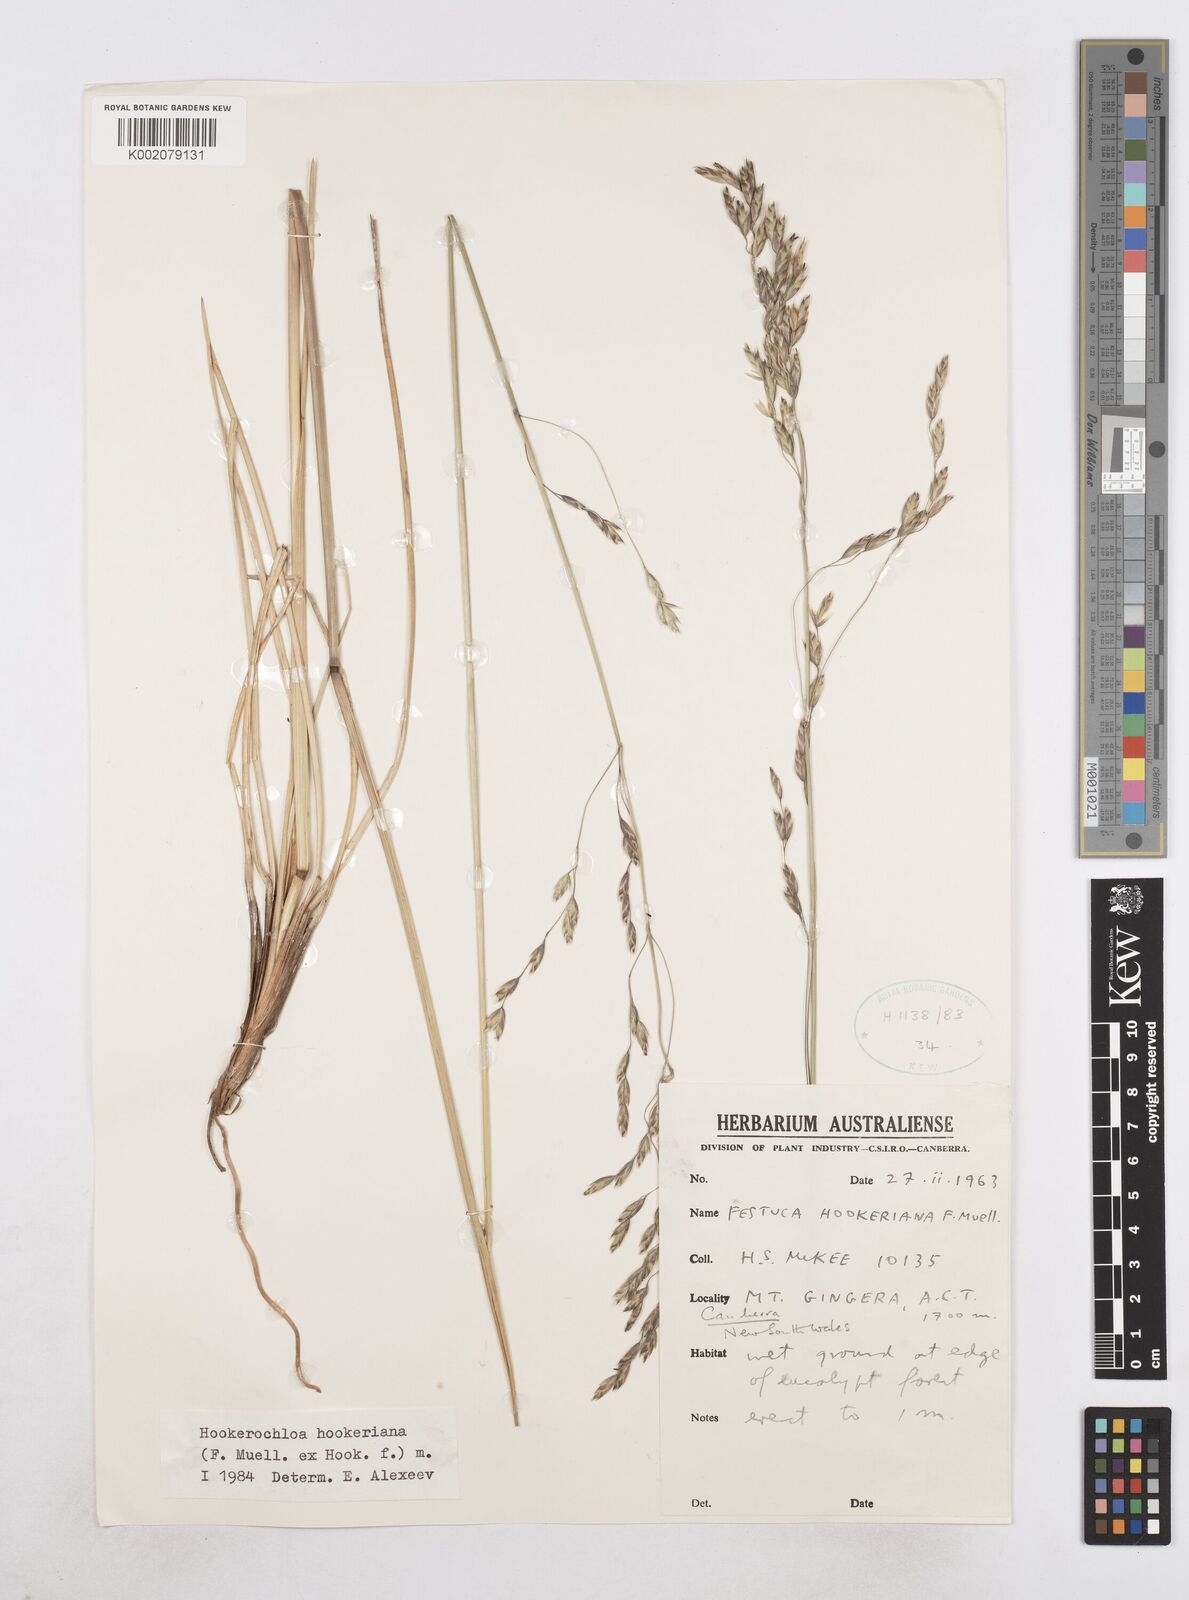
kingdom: Plantae
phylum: Tracheophyta
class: Liliopsida
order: Poales
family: Poaceae
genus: Hookerochloa
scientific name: Hookerochloa hookeriana
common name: Hooker's-fescue
